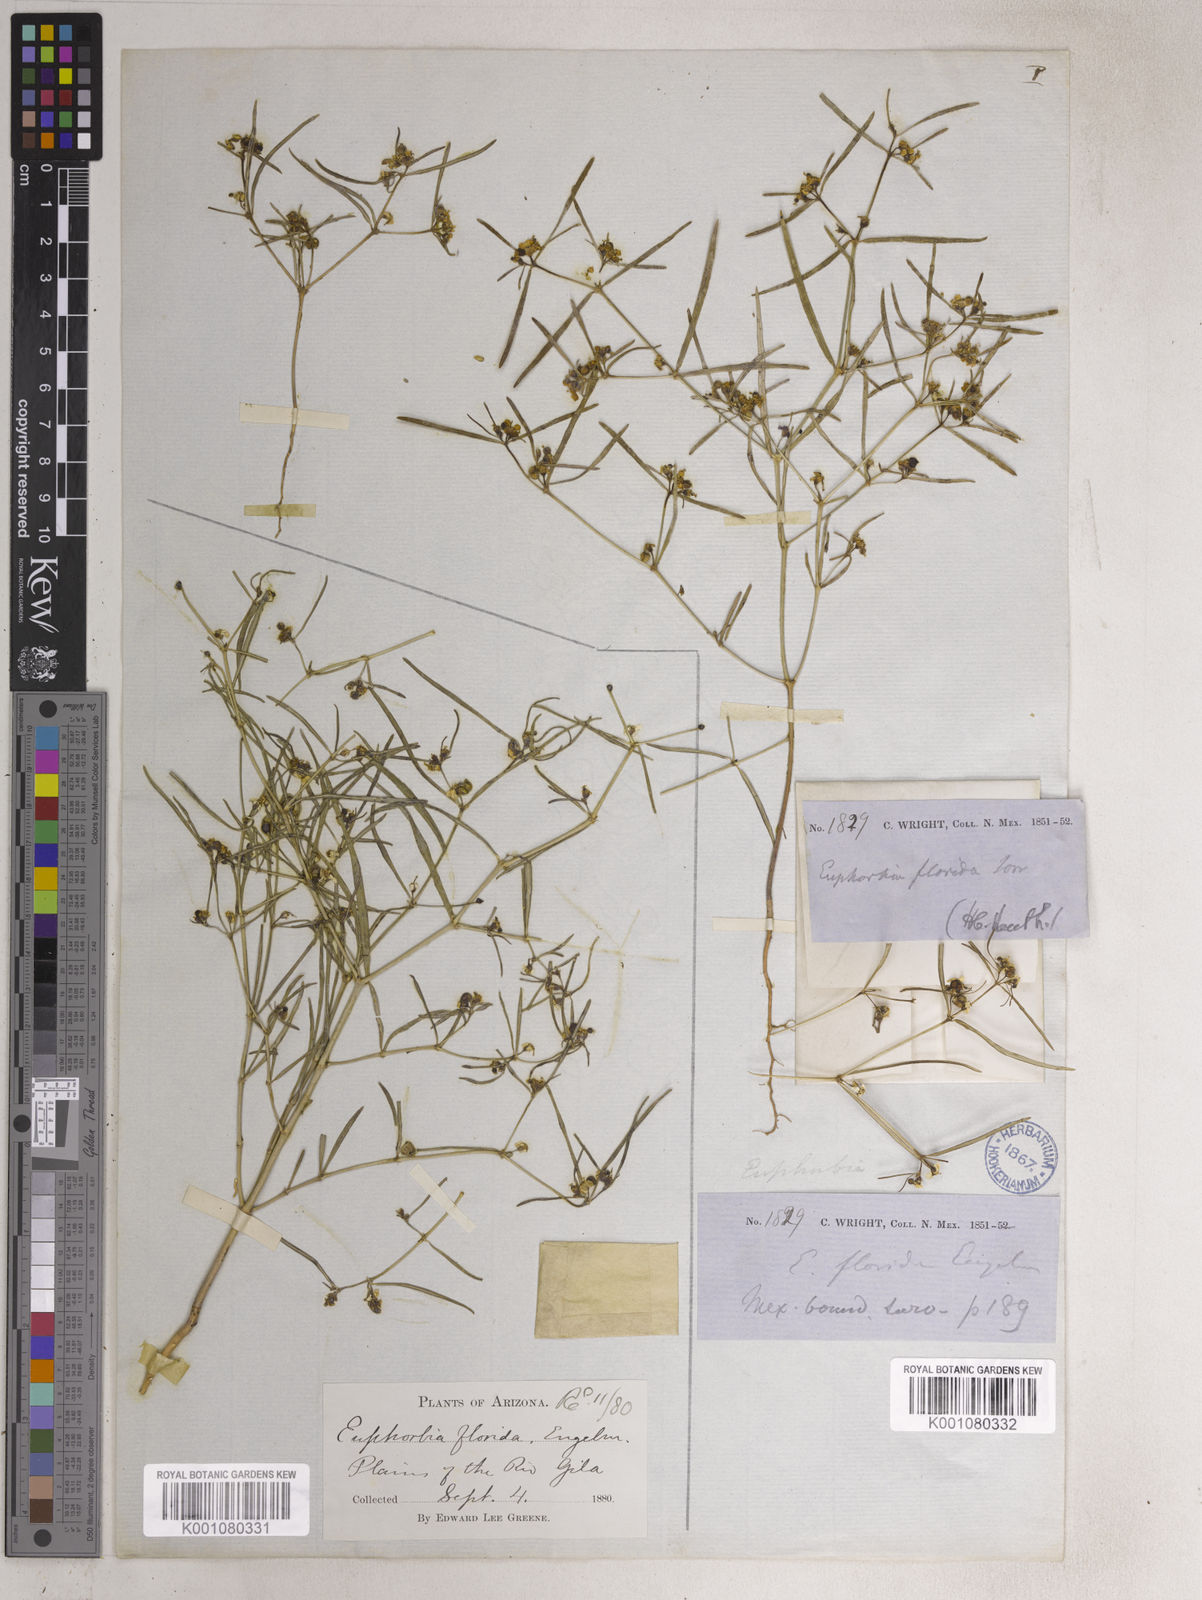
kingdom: Plantae
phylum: Tracheophyta
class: Magnoliopsida
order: Malpighiales
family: Euphorbiaceae
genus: Euphorbia
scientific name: Euphorbia florida
